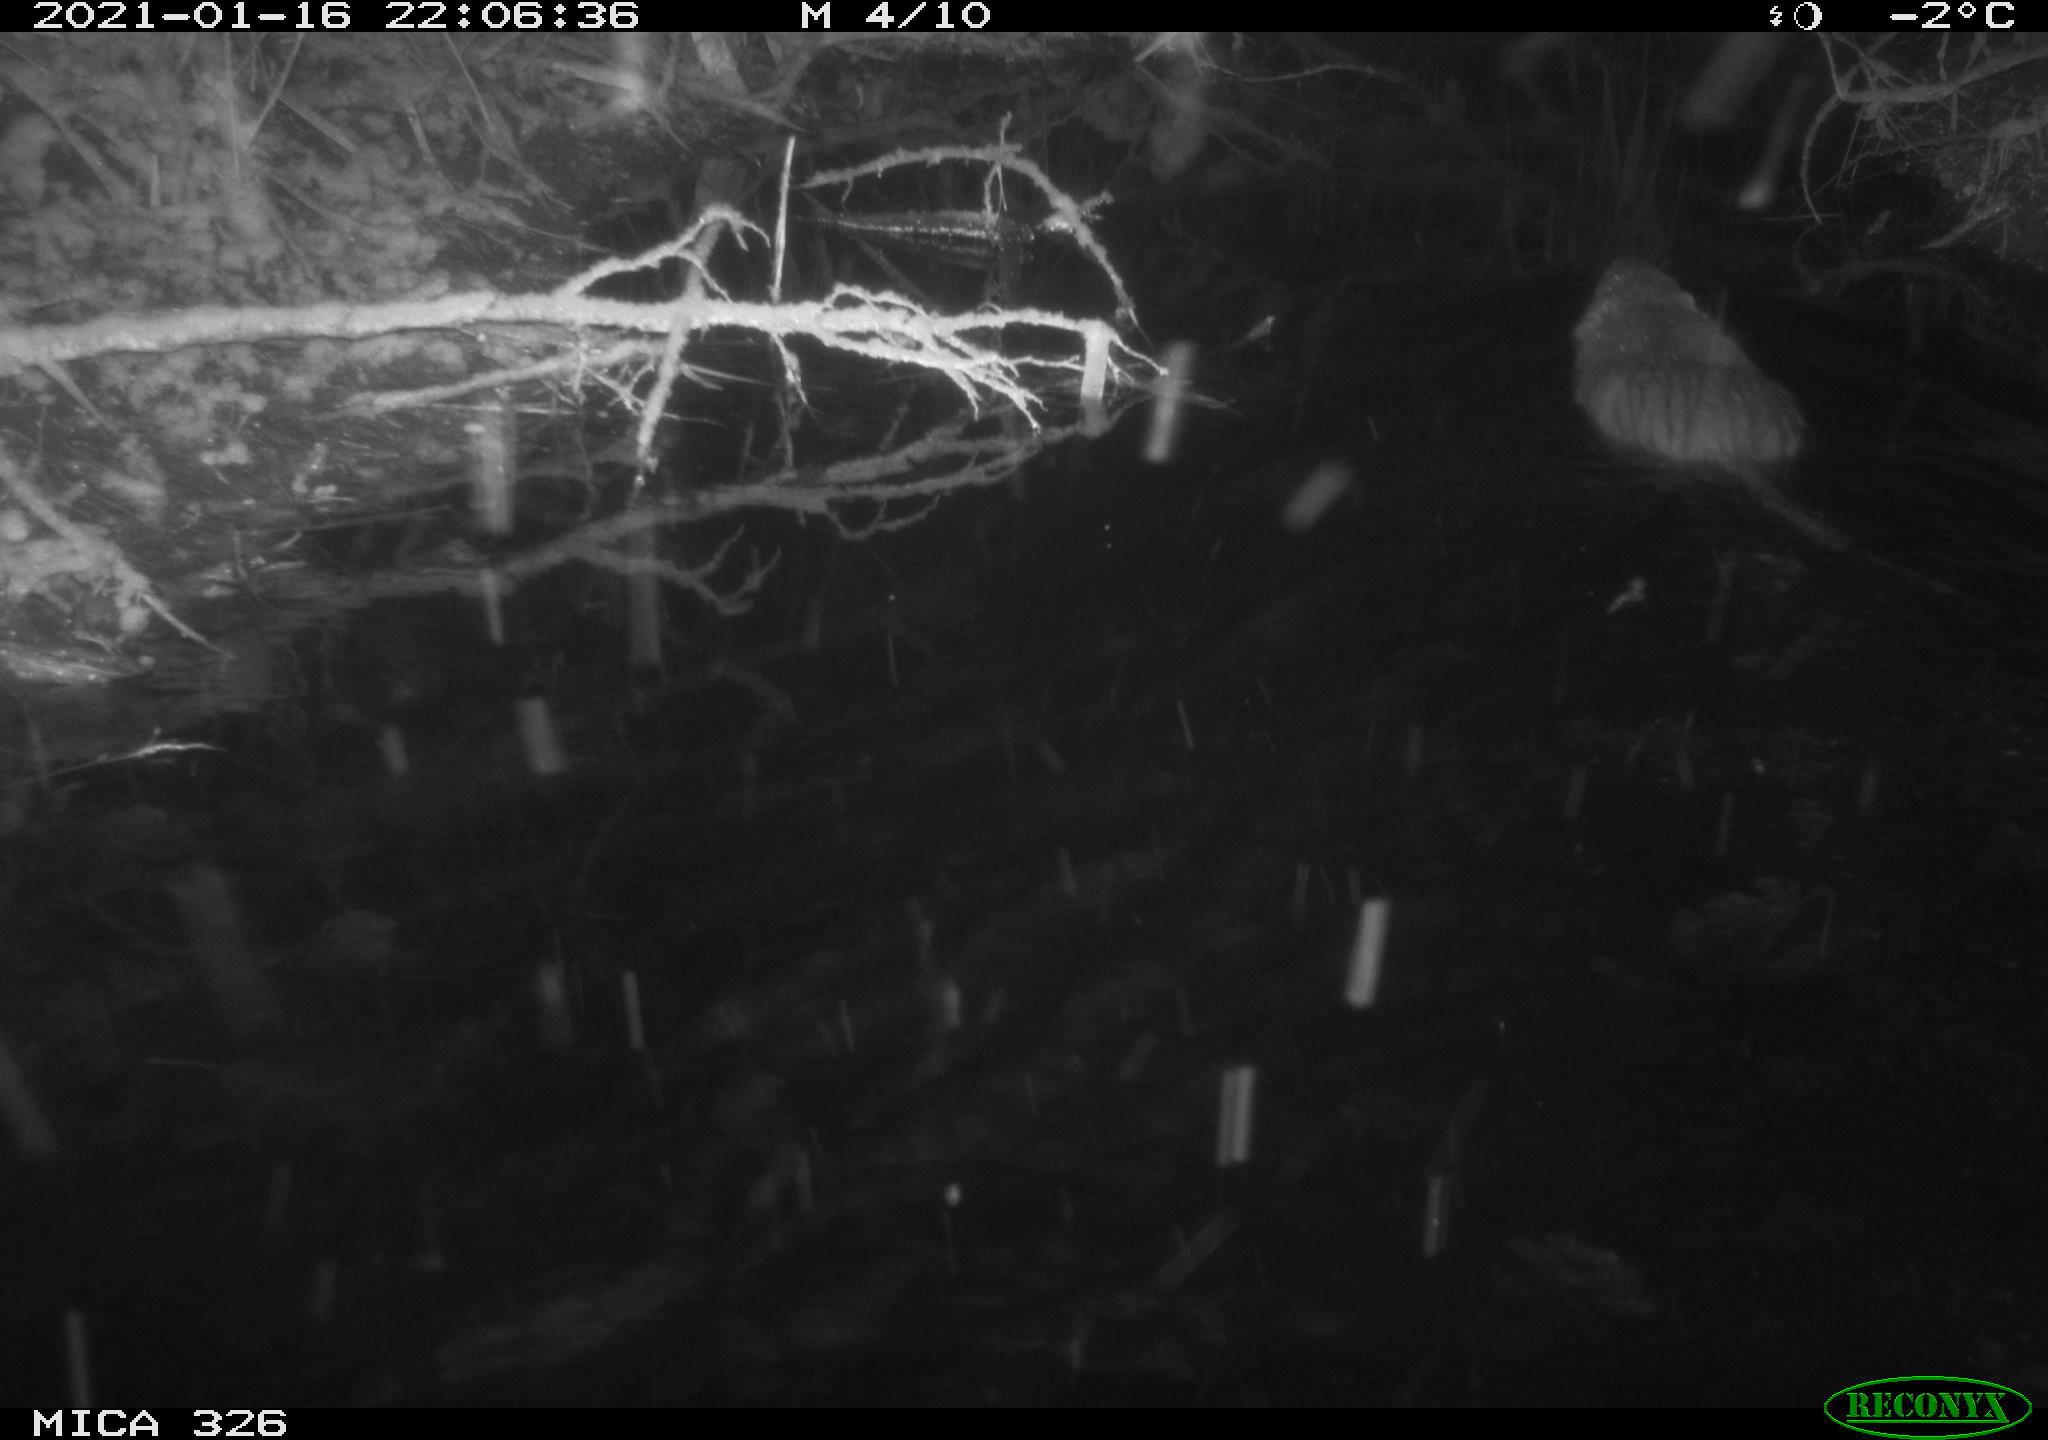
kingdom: Animalia
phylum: Chordata
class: Mammalia
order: Rodentia
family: Myocastoridae
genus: Myocastor
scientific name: Myocastor coypus
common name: Coypu
